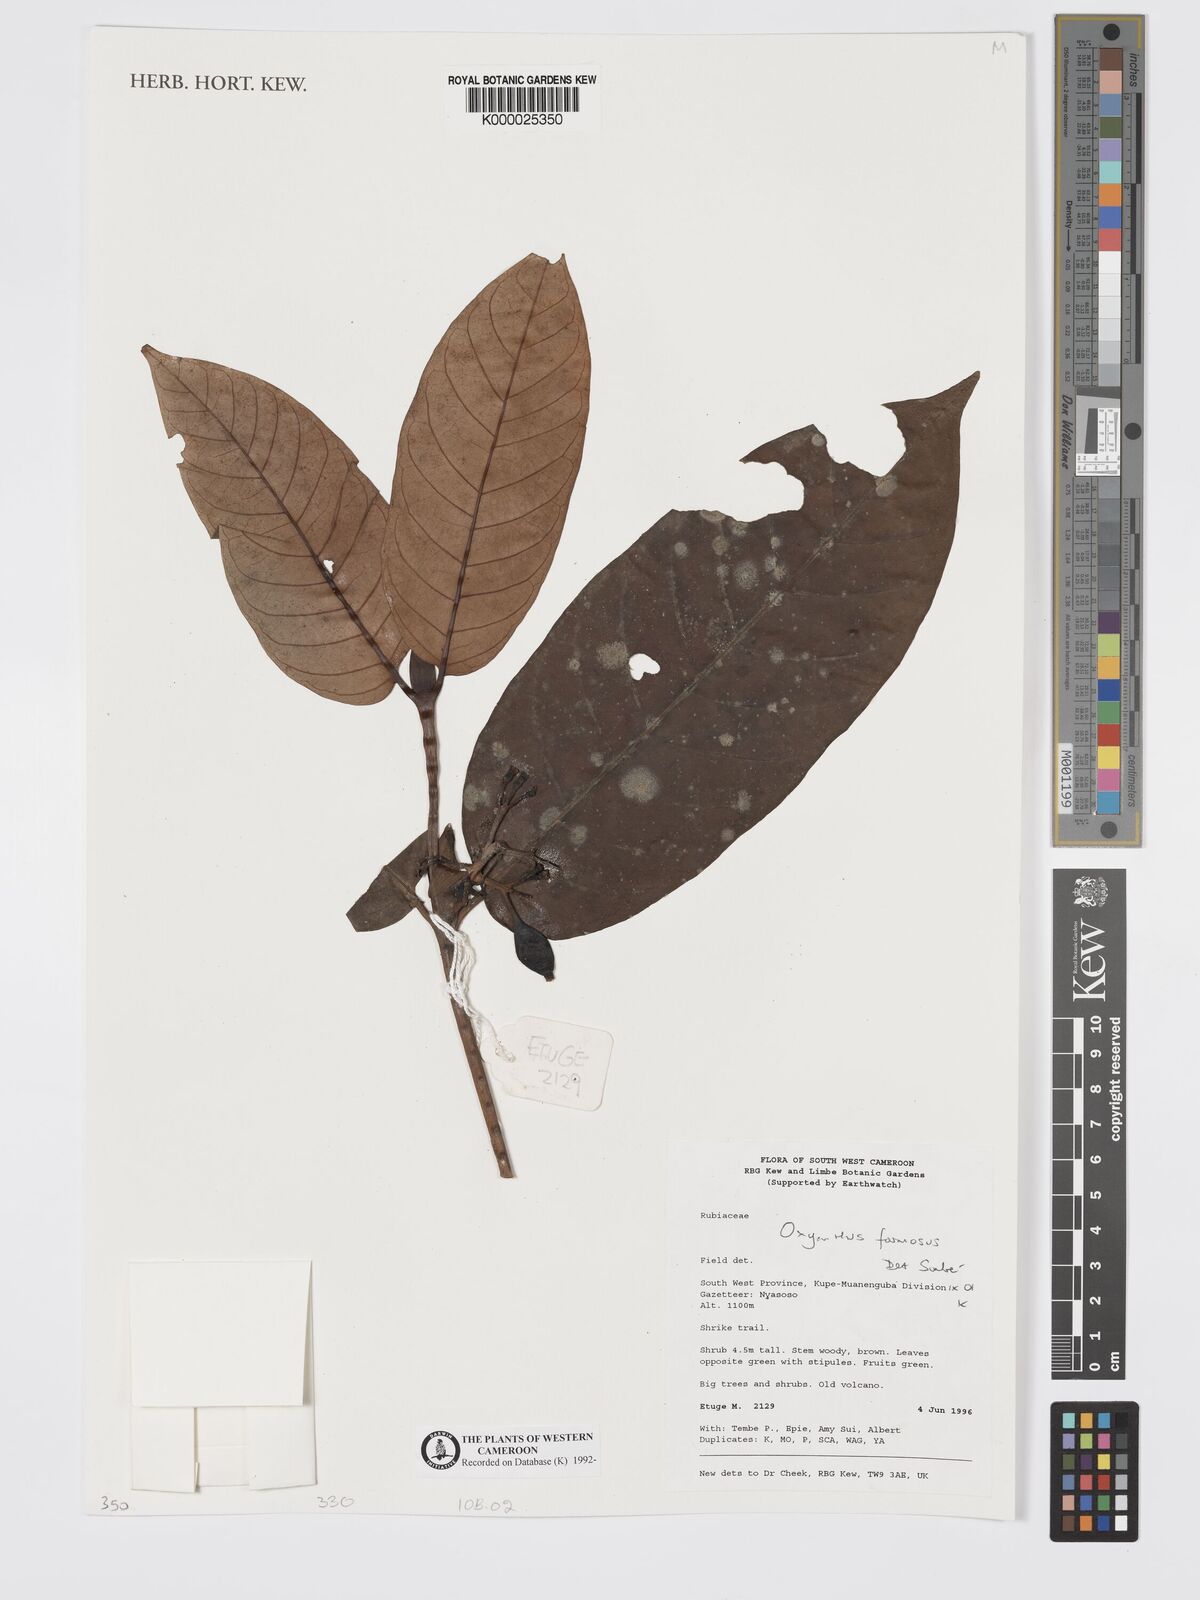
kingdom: Plantae
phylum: Tracheophyta
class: Magnoliopsida
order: Gentianales
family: Rubiaceae
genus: Oxyanthus
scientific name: Oxyanthus
